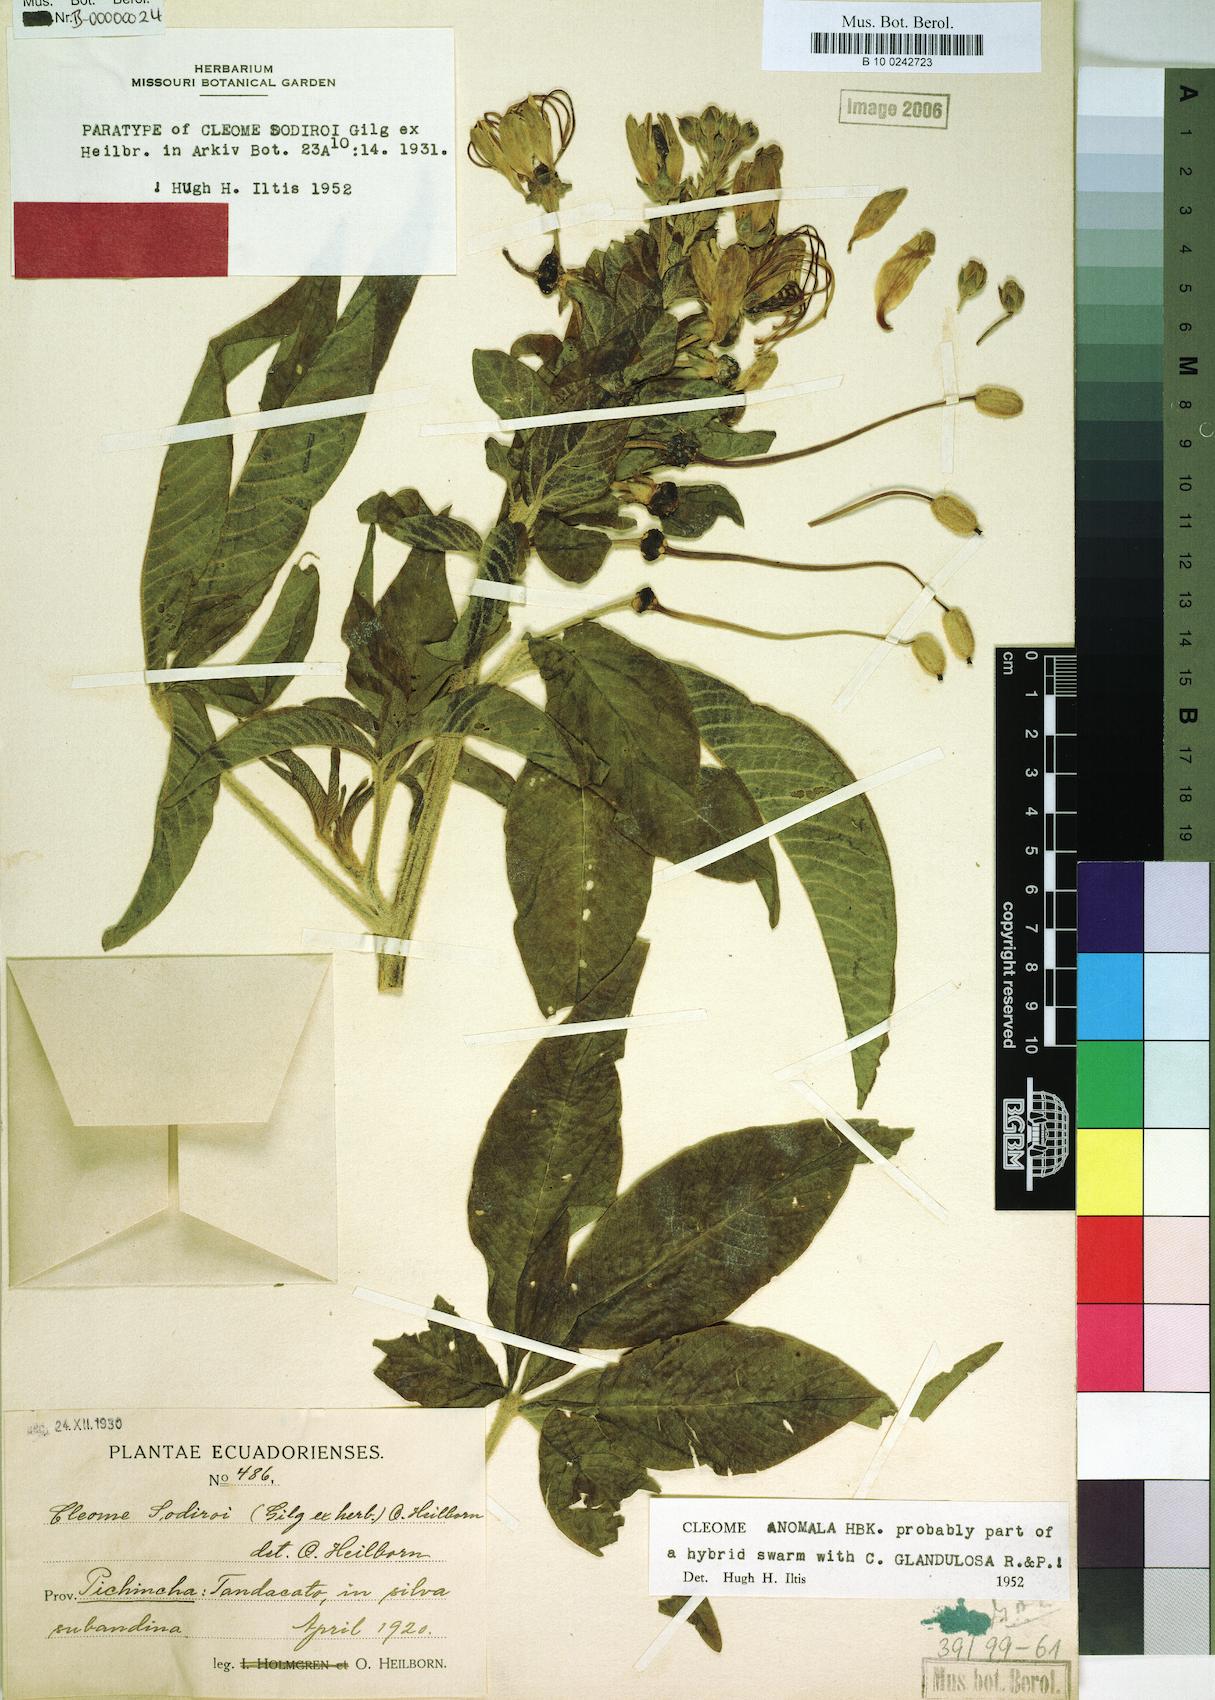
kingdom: Plantae
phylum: Tracheophyta
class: Magnoliopsida
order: Brassicales
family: Cleomaceae
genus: Andinocleome
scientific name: Andinocleome anomala
